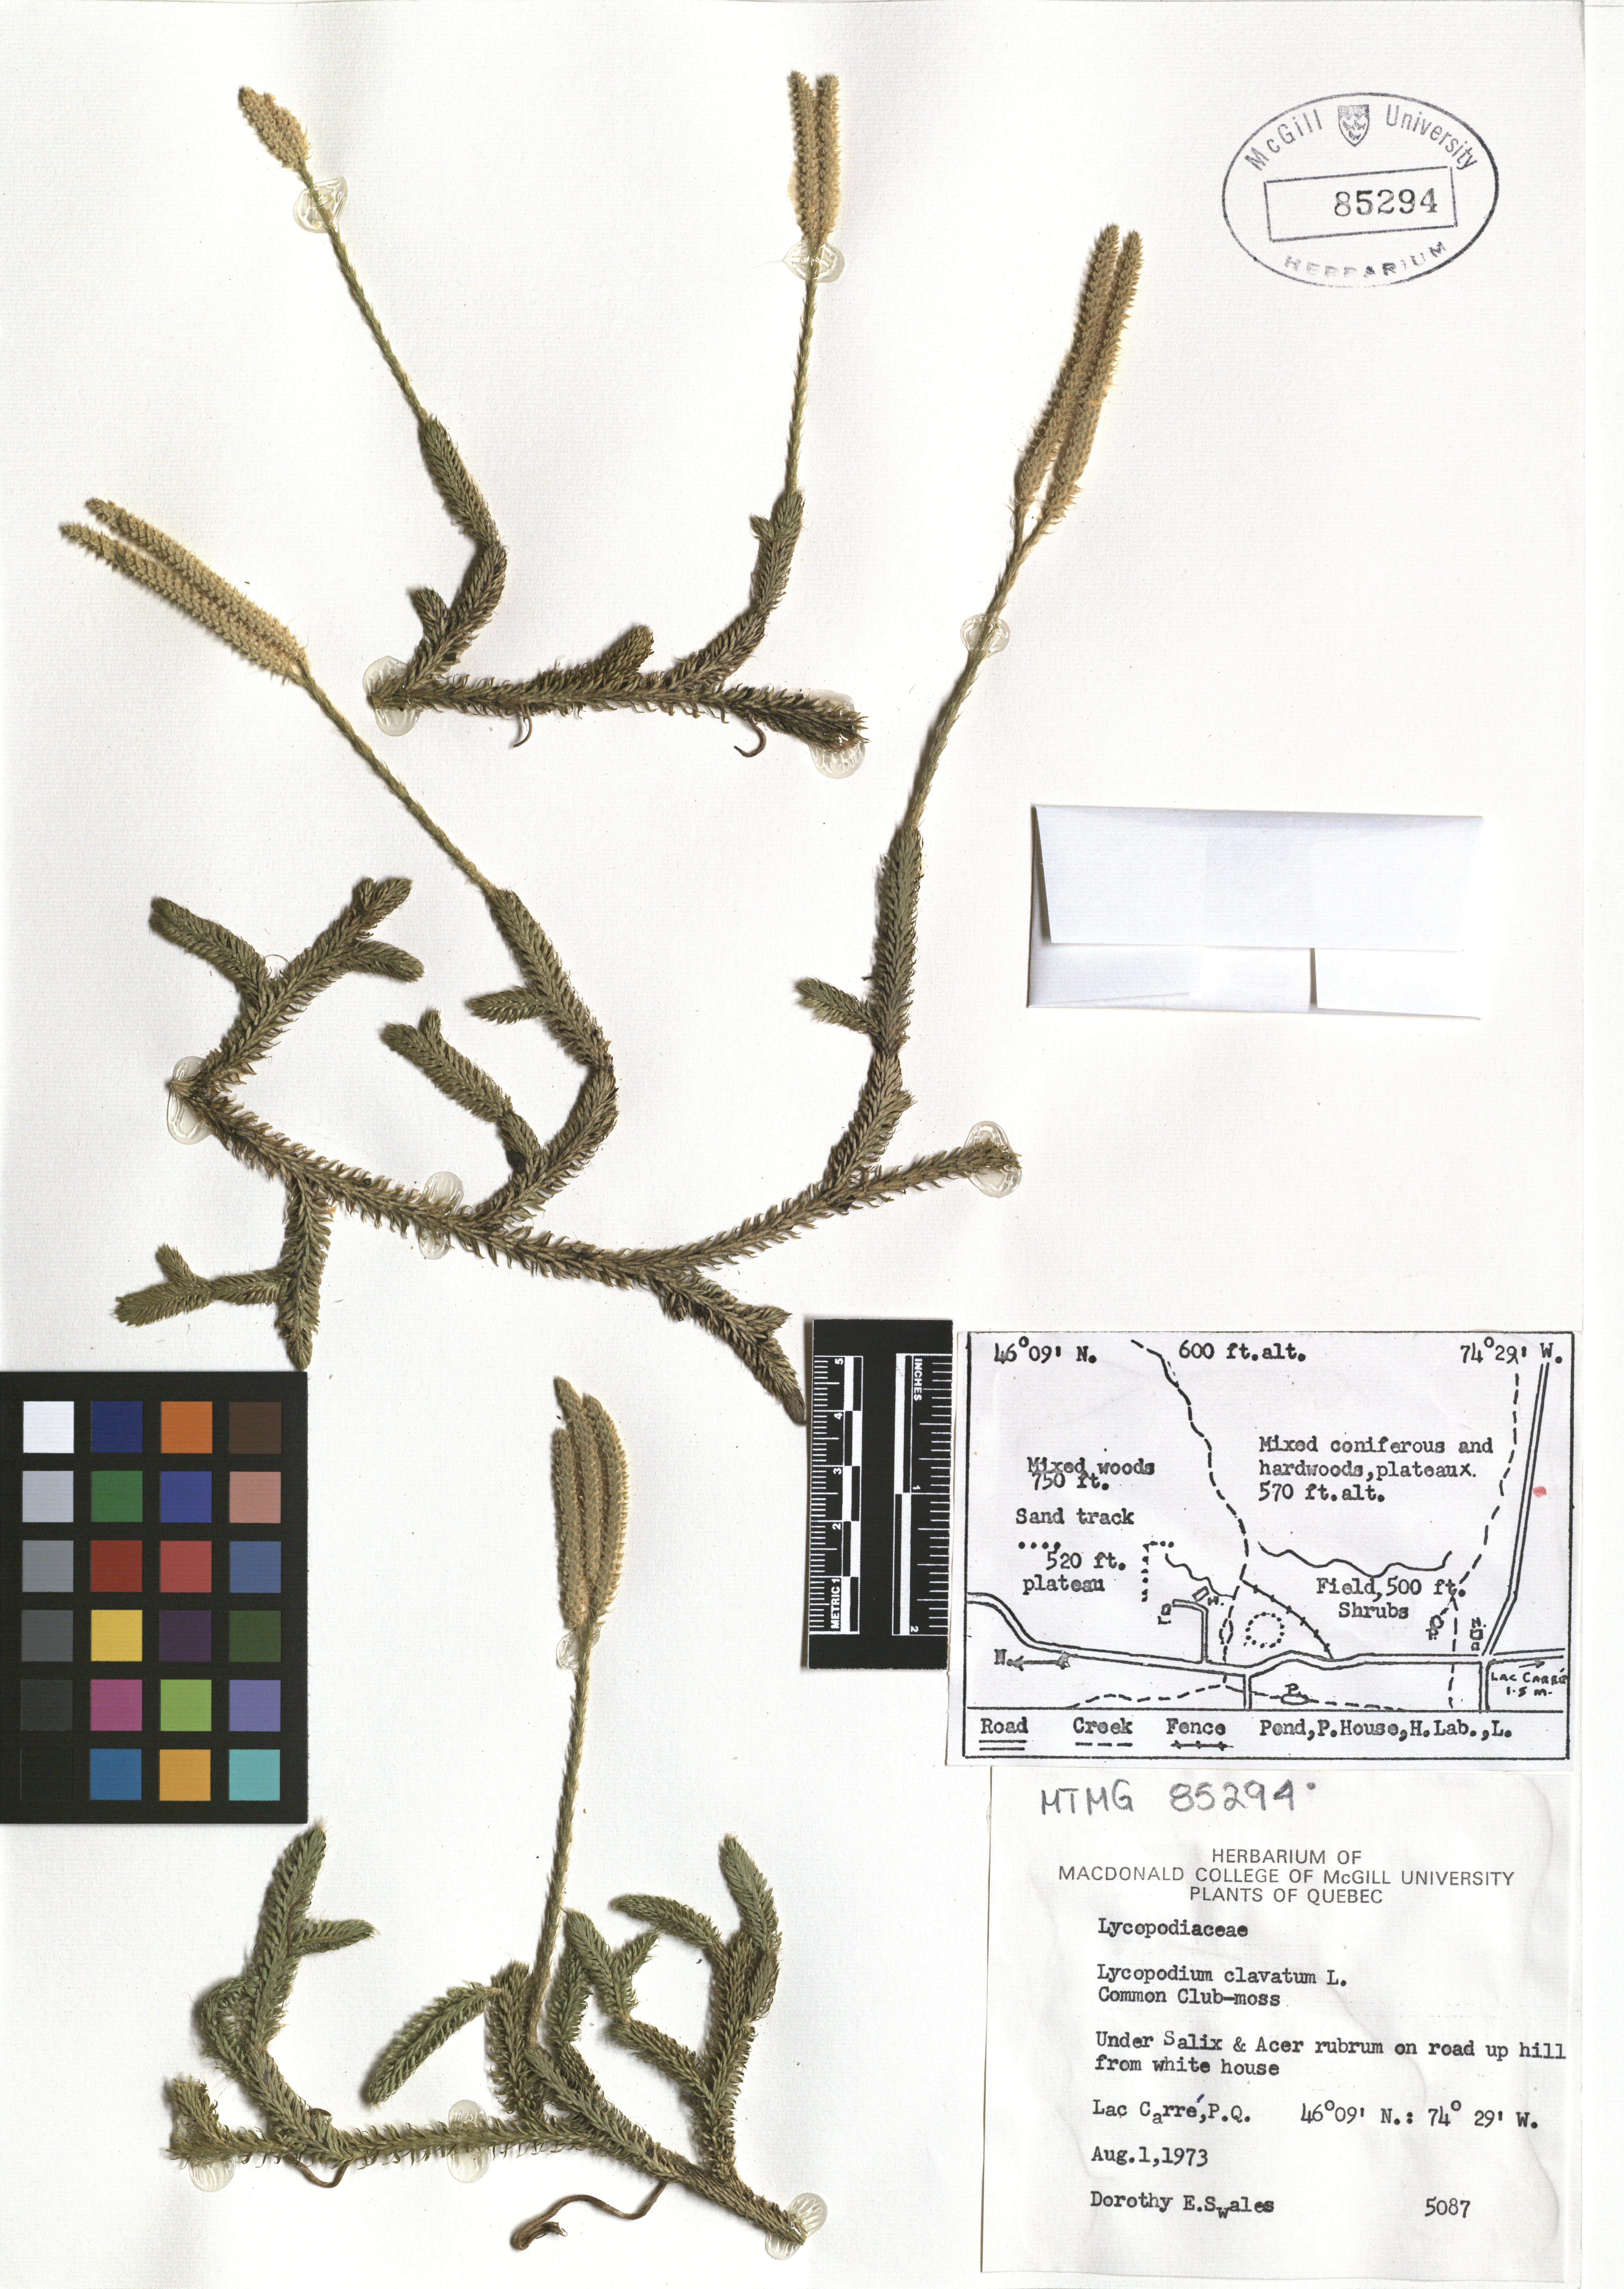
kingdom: Plantae
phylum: Tracheophyta
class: Lycopodiopsida
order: Lycopodiales
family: Lycopodiaceae
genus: Lycopodium
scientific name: Lycopodium clavatum
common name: Stag's-horn clubmoss
